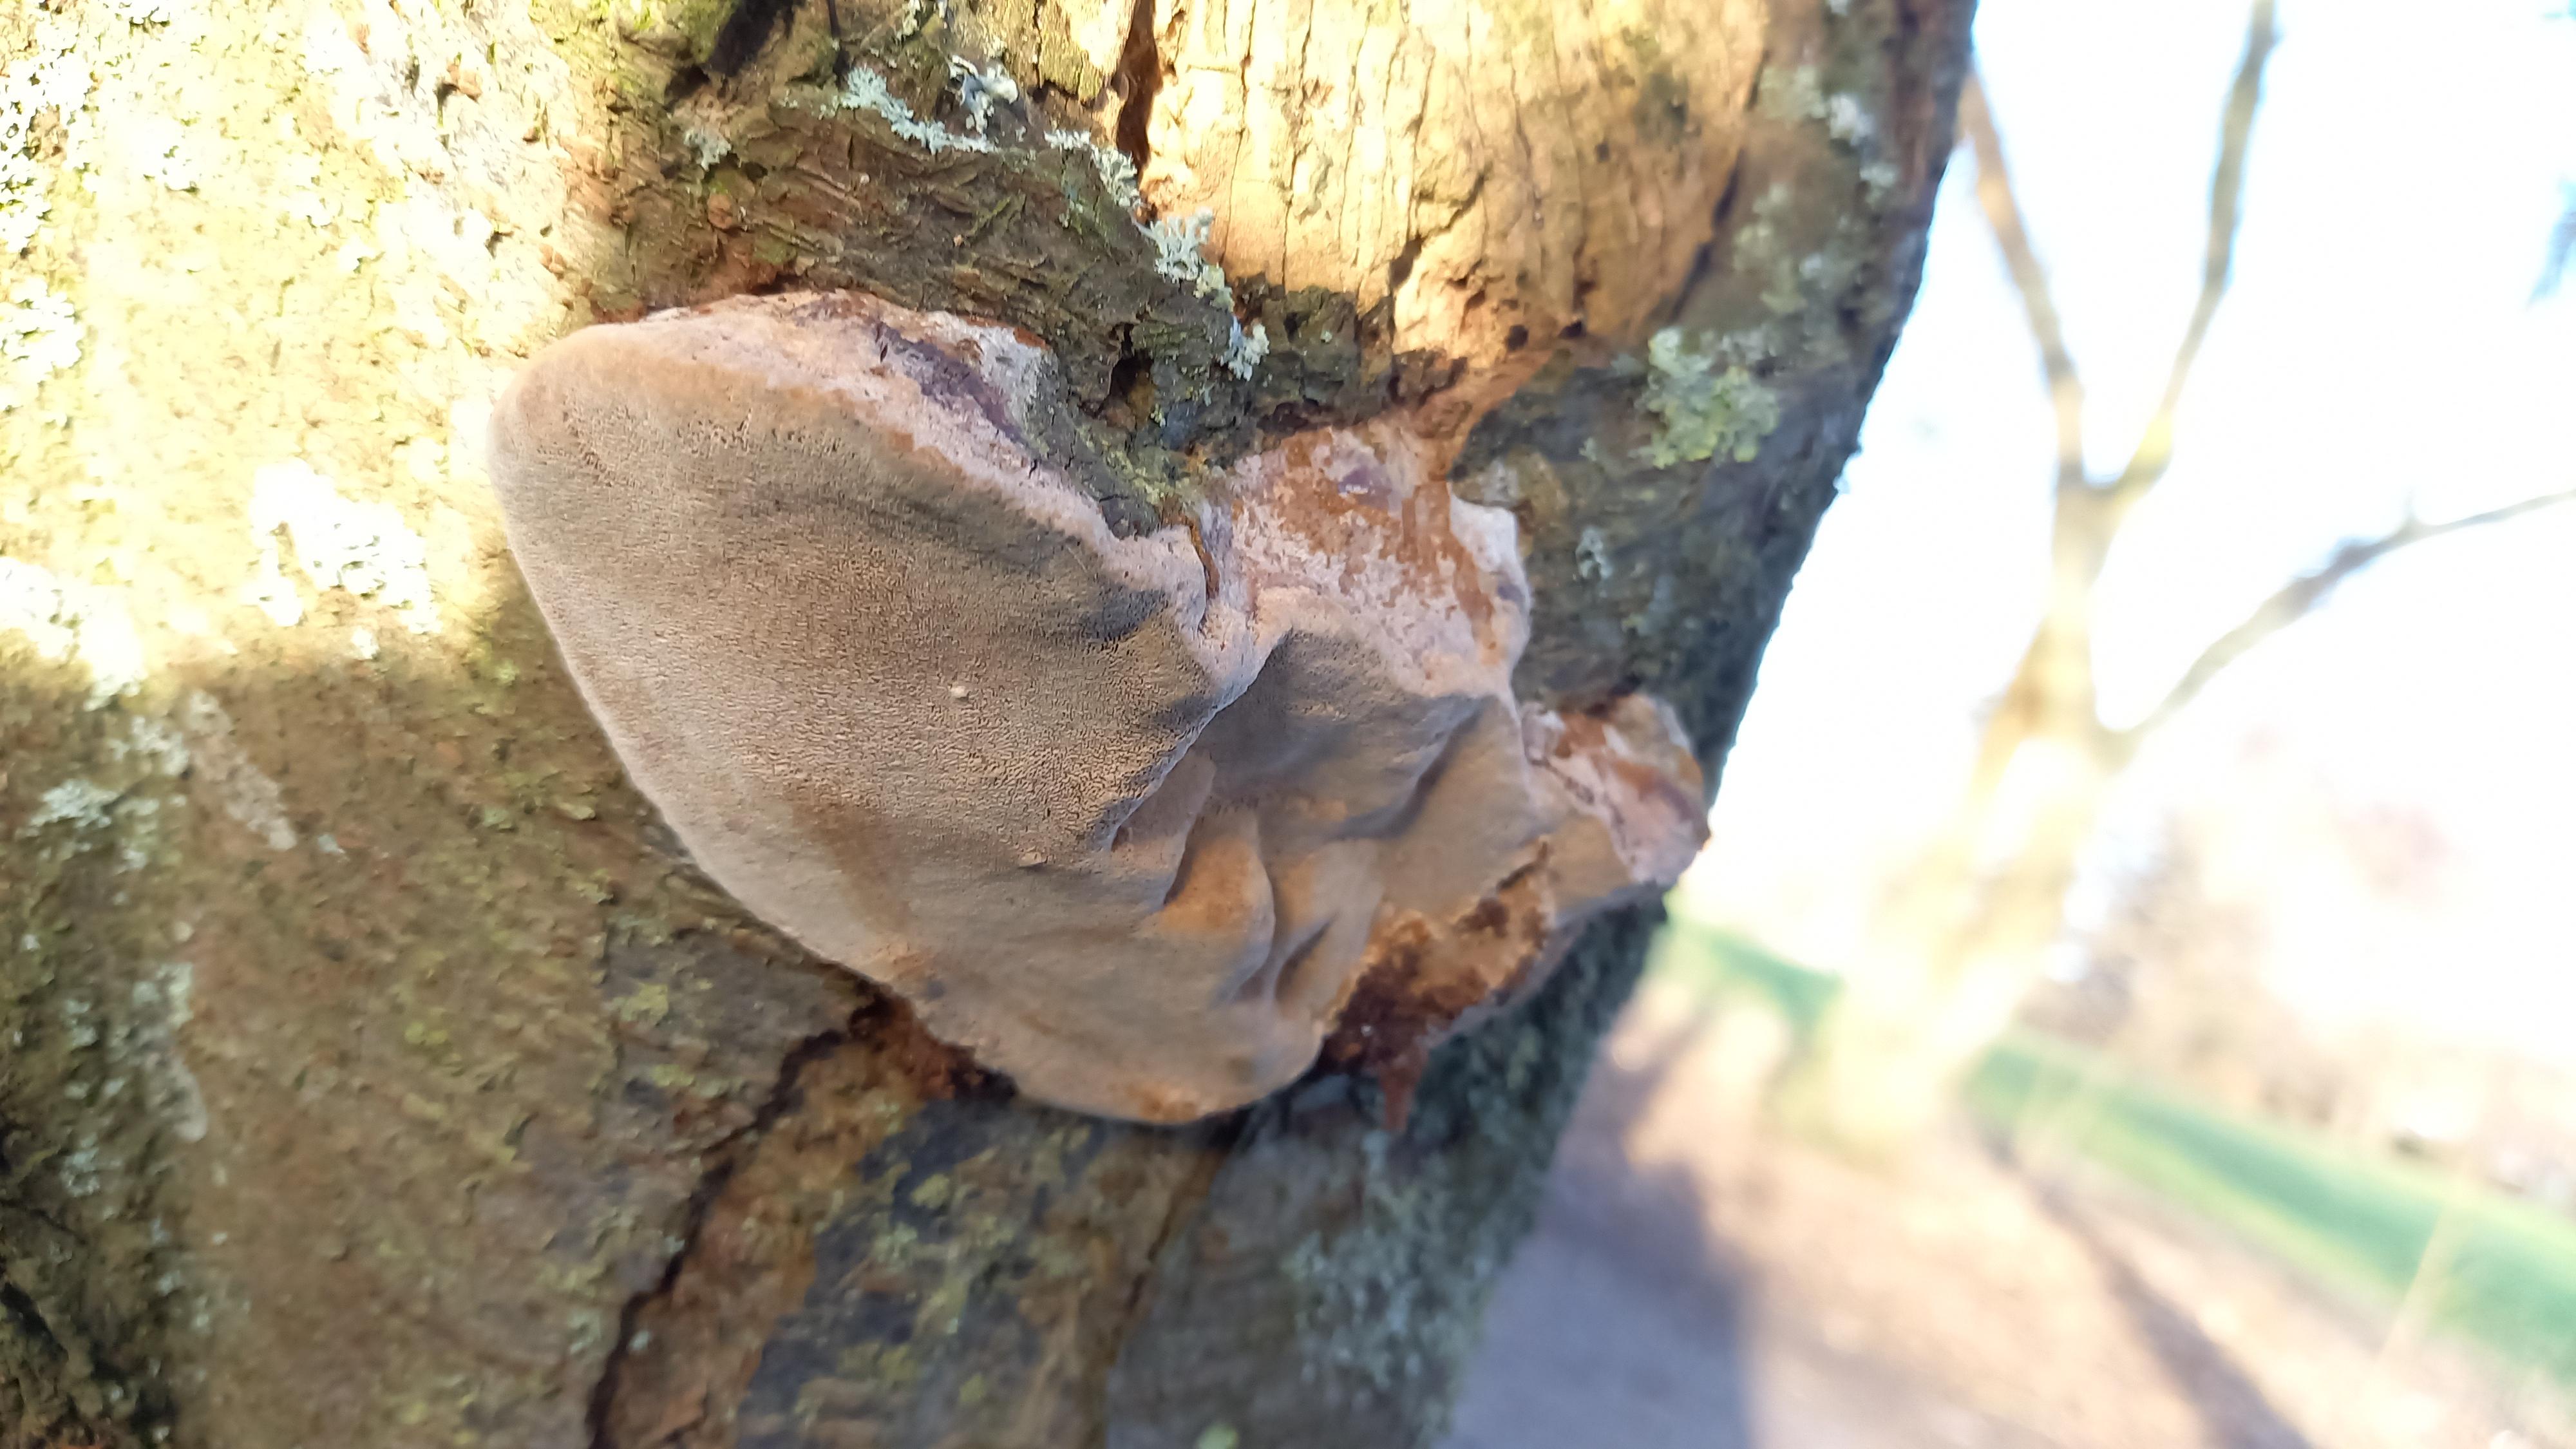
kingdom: Fungi
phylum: Basidiomycota
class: Agaricomycetes
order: Hymenochaetales
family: Hymenochaetaceae
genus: Phellinus
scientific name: Phellinus pomaceus
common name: blomme-ildporesvamp
